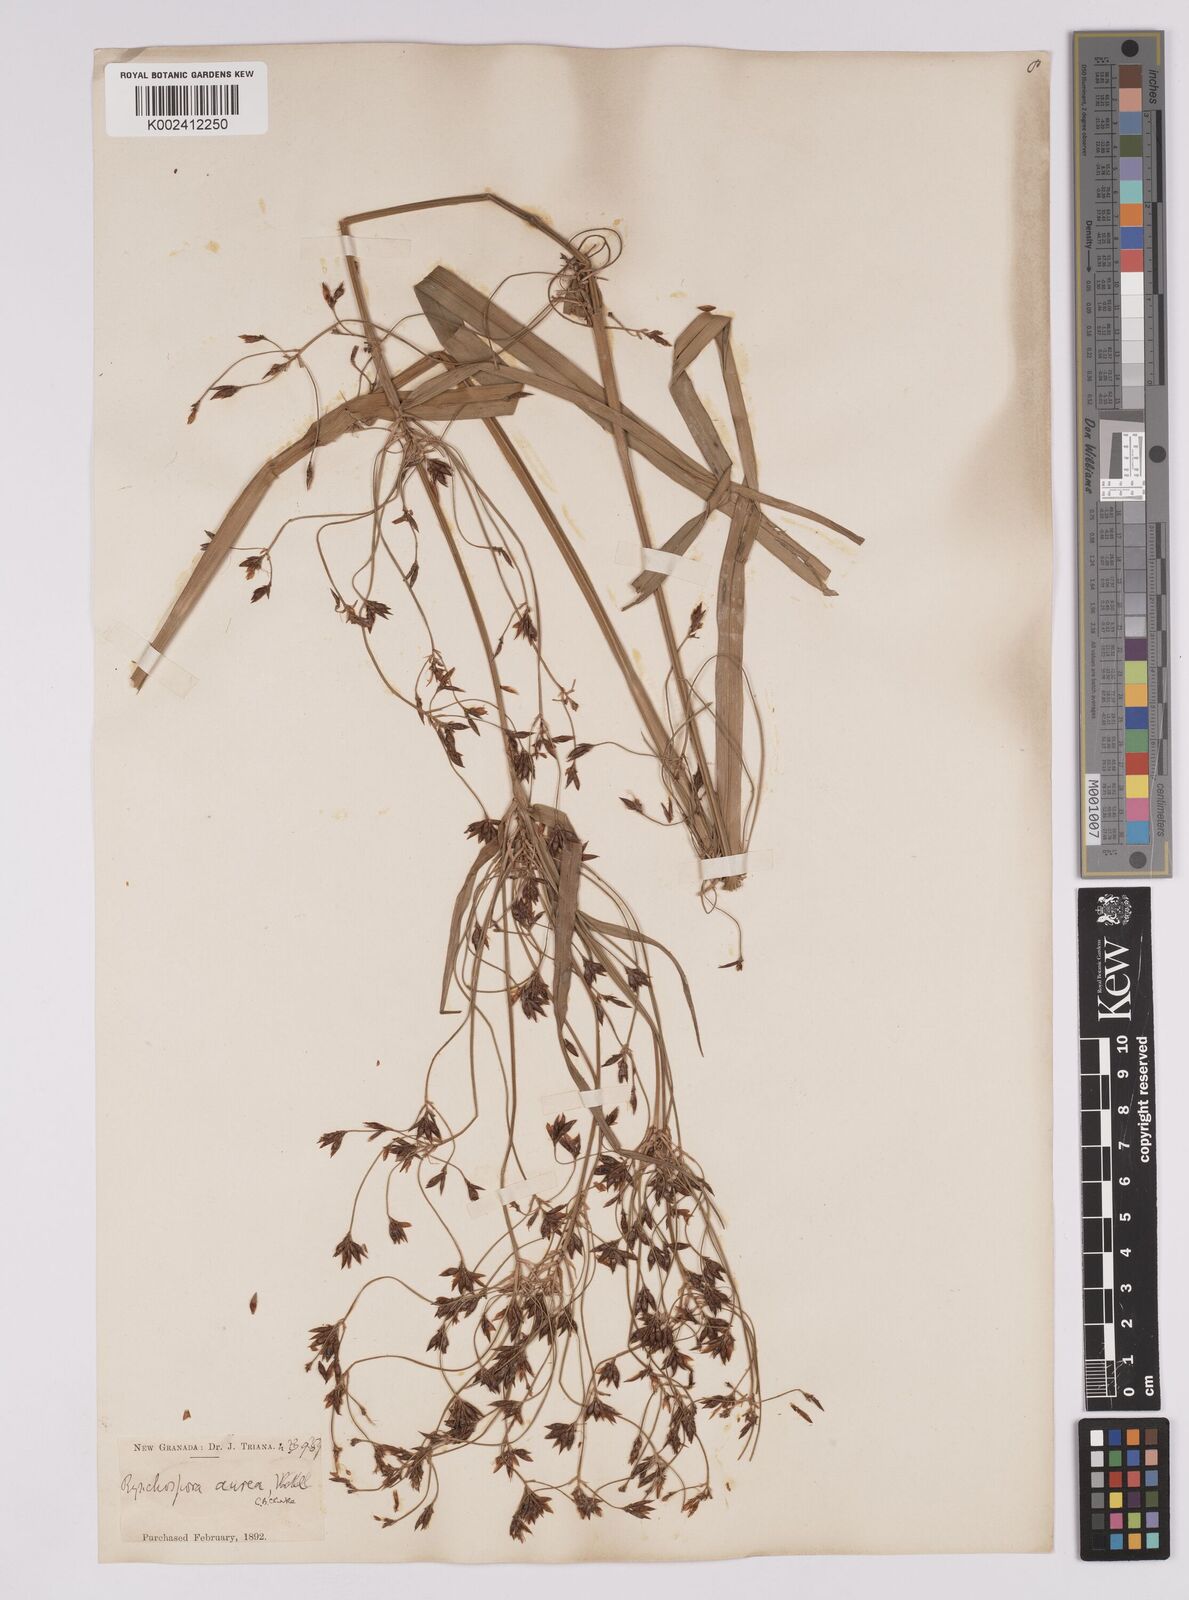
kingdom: Plantae
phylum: Tracheophyta
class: Liliopsida
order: Poales
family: Cyperaceae
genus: Rhynchospora
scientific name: Rhynchospora corymbosa
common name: Golden beak sedge
